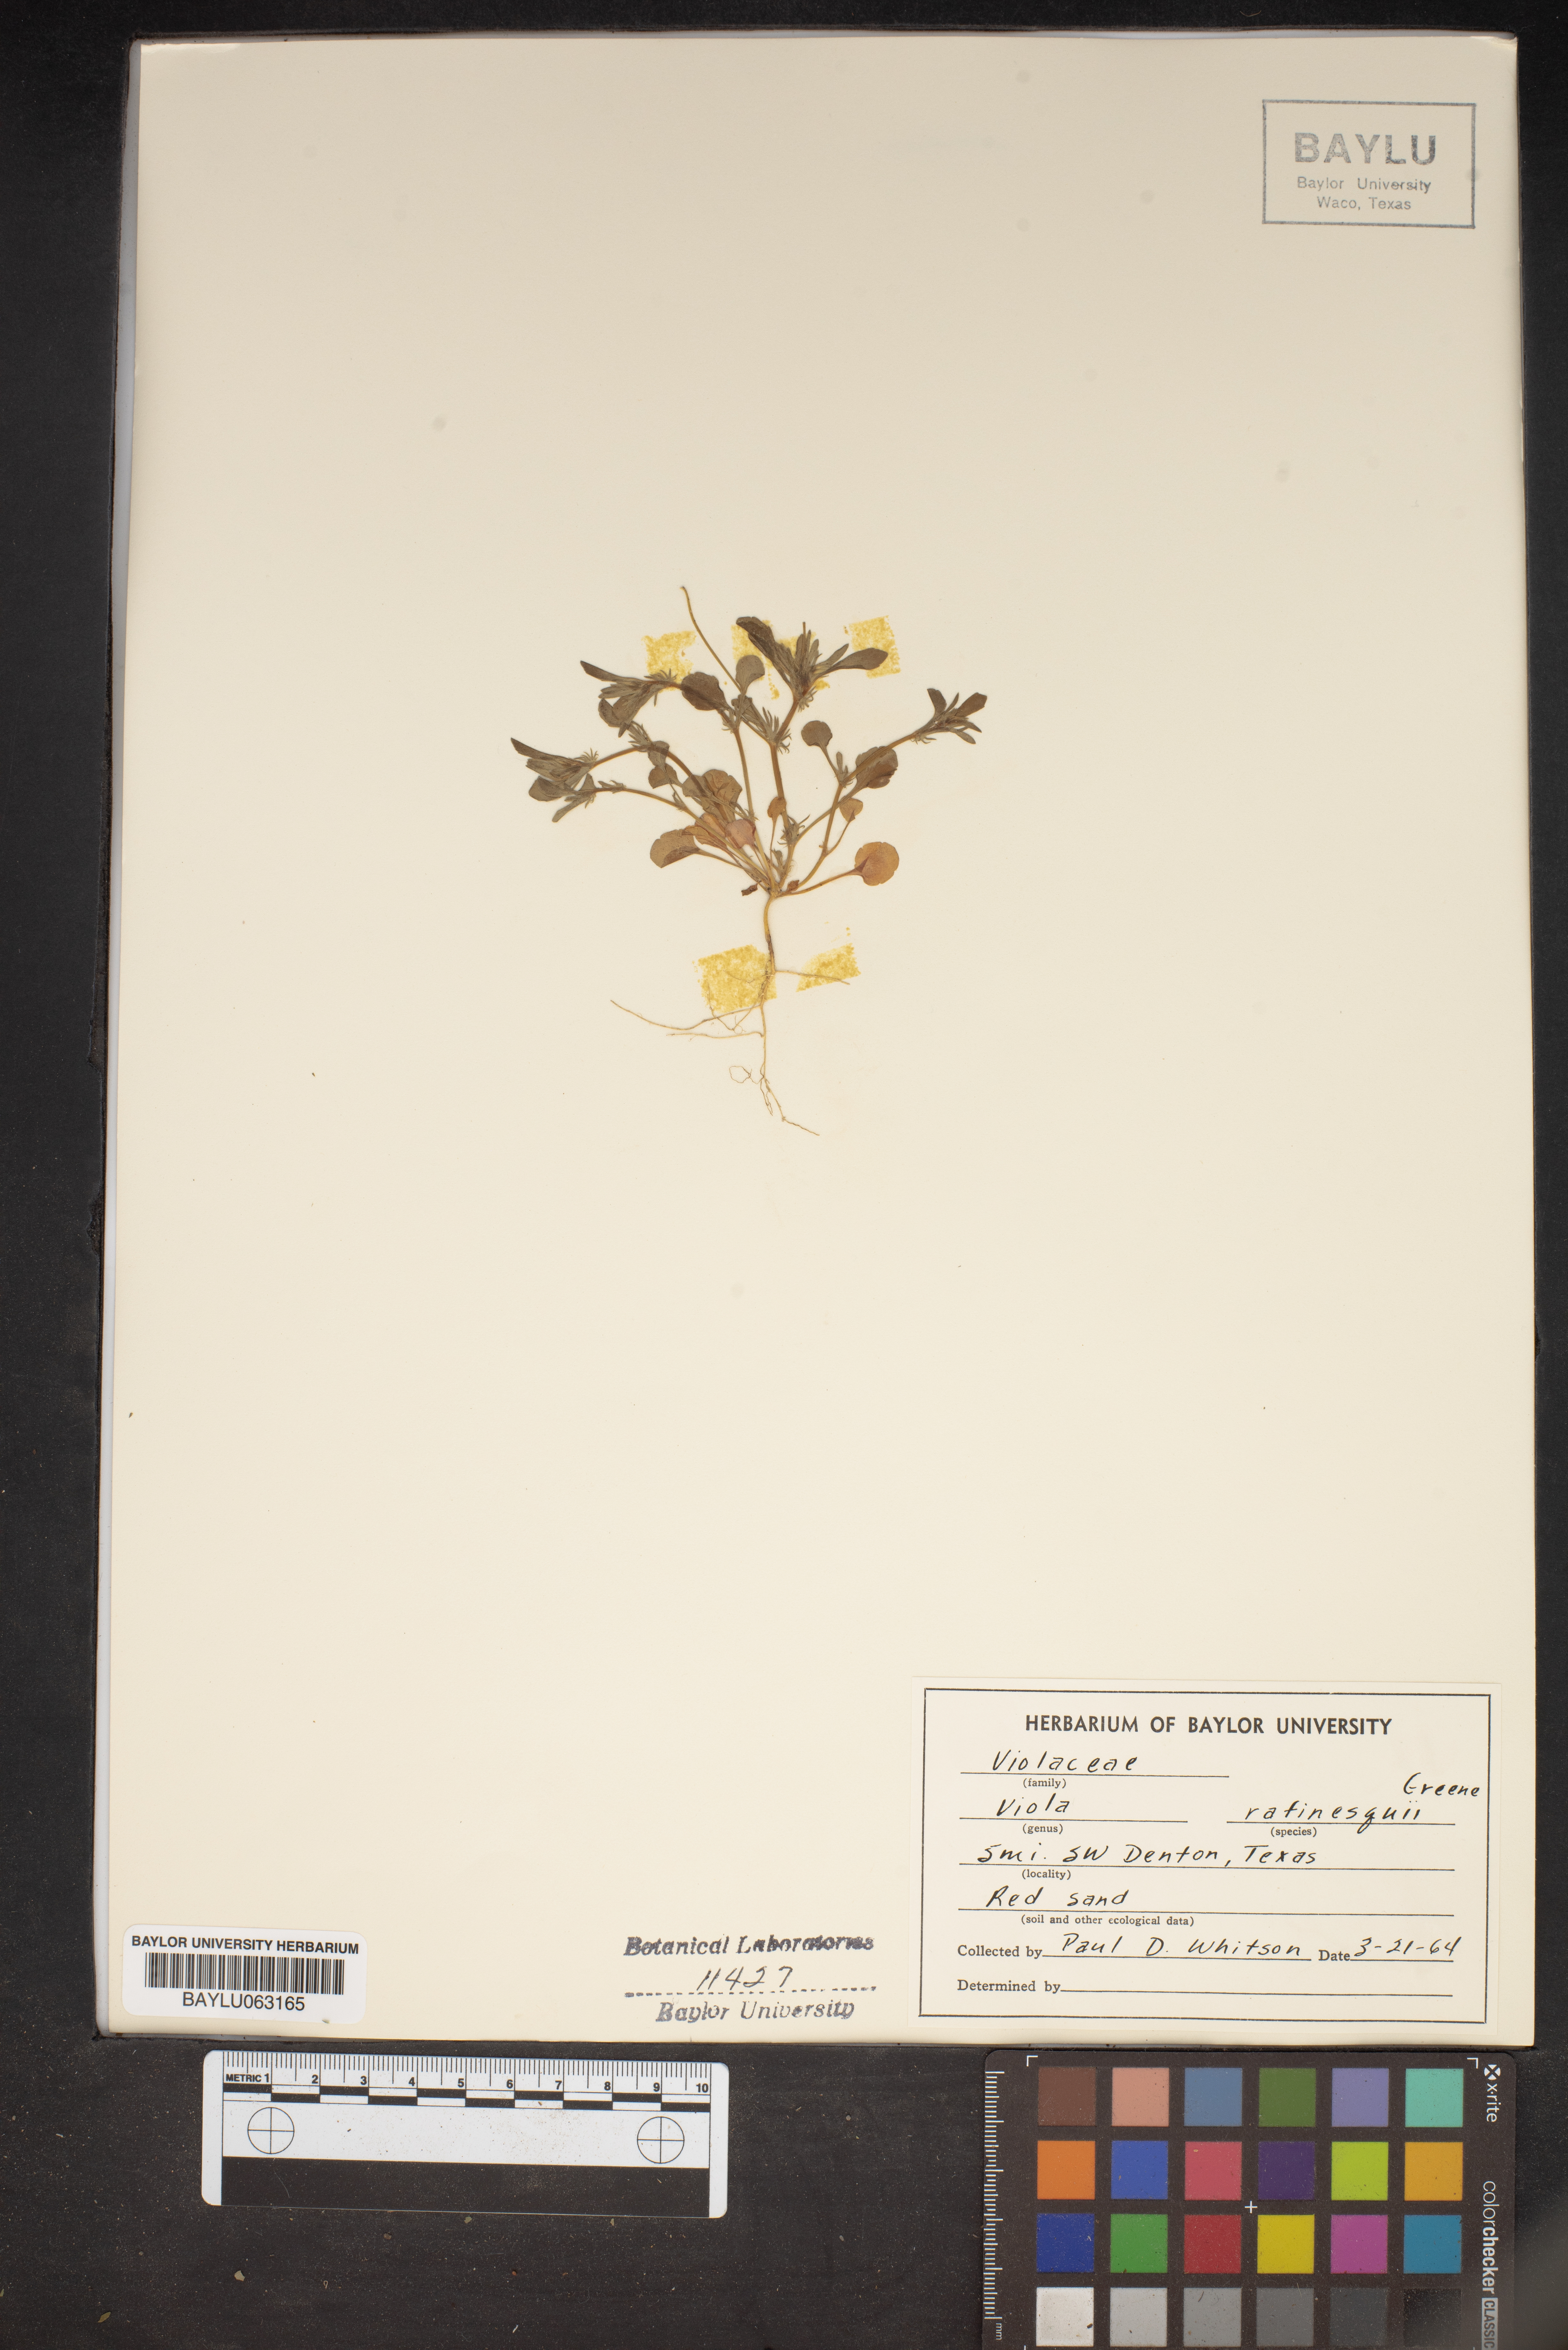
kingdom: Plantae
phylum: Tracheophyta
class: Magnoliopsida
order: Malpighiales
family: Violaceae
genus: Viola
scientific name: Viola rafinesquei
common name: American field pansy
